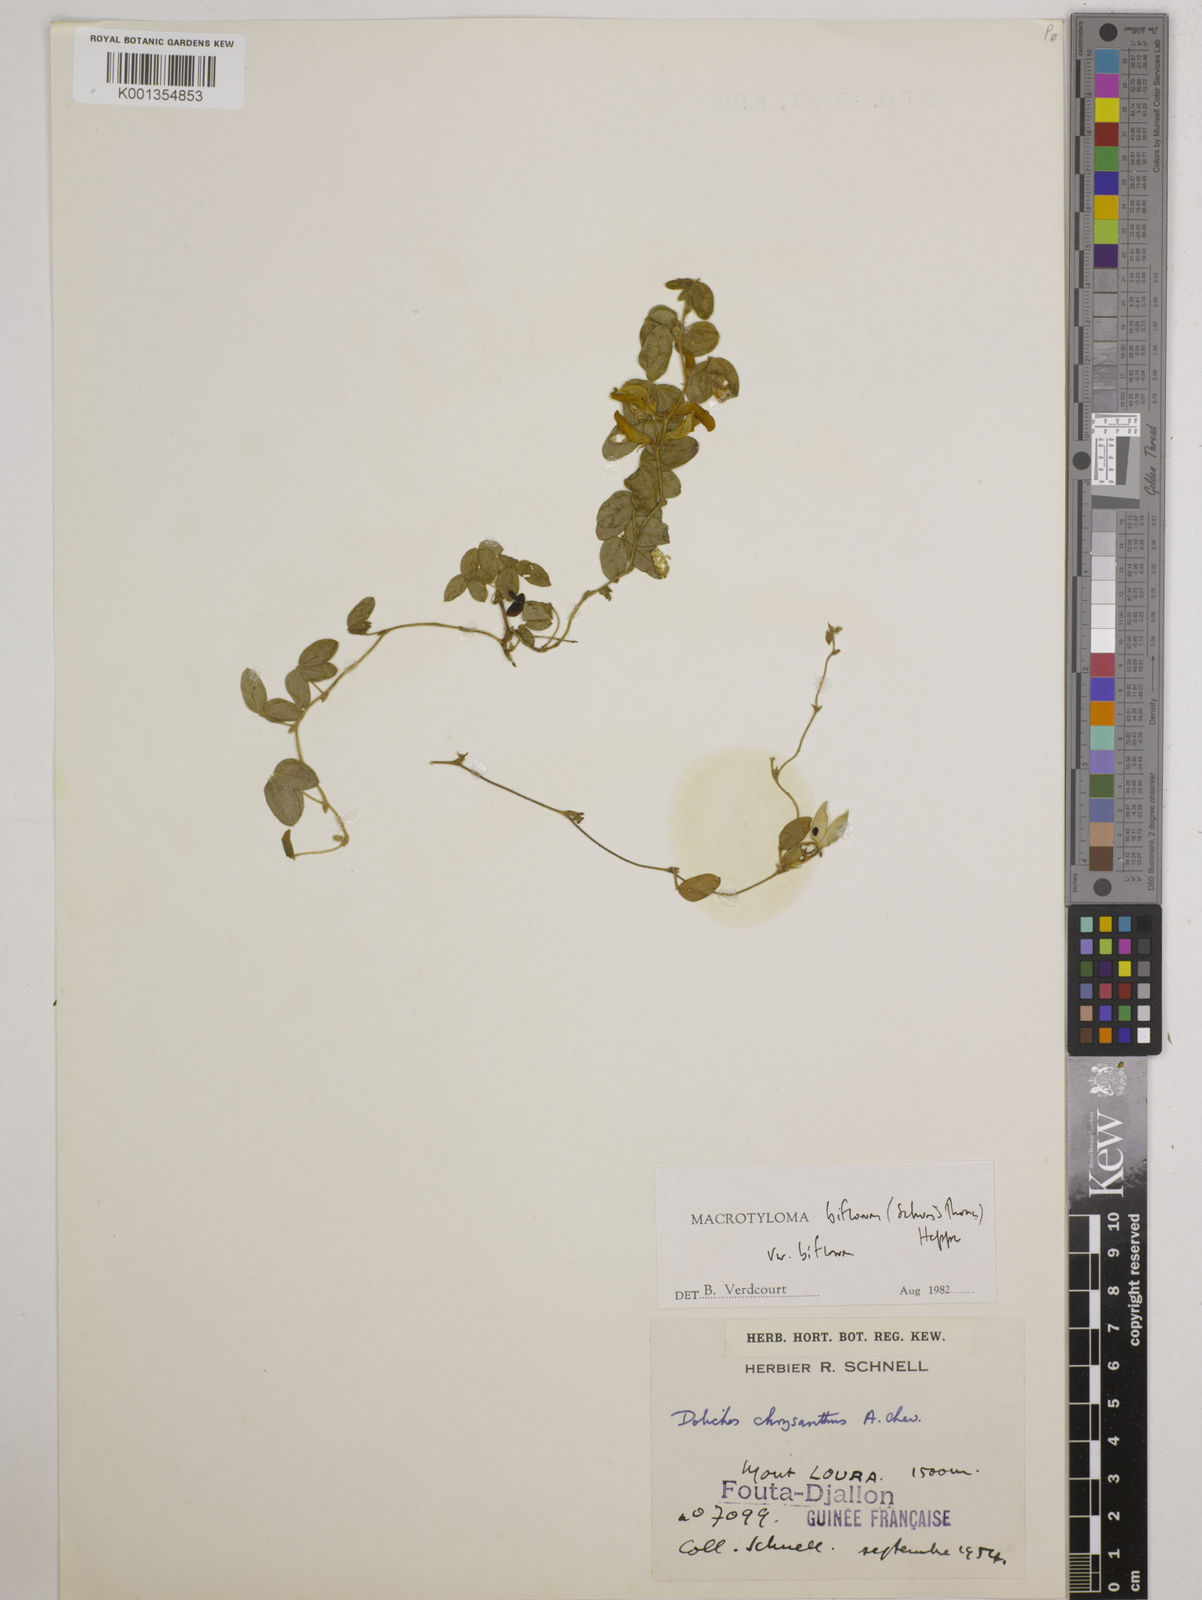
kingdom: Plantae
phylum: Tracheophyta
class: Magnoliopsida
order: Fabales
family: Fabaceae
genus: Macrotyloma
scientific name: Macrotyloma biflorum
